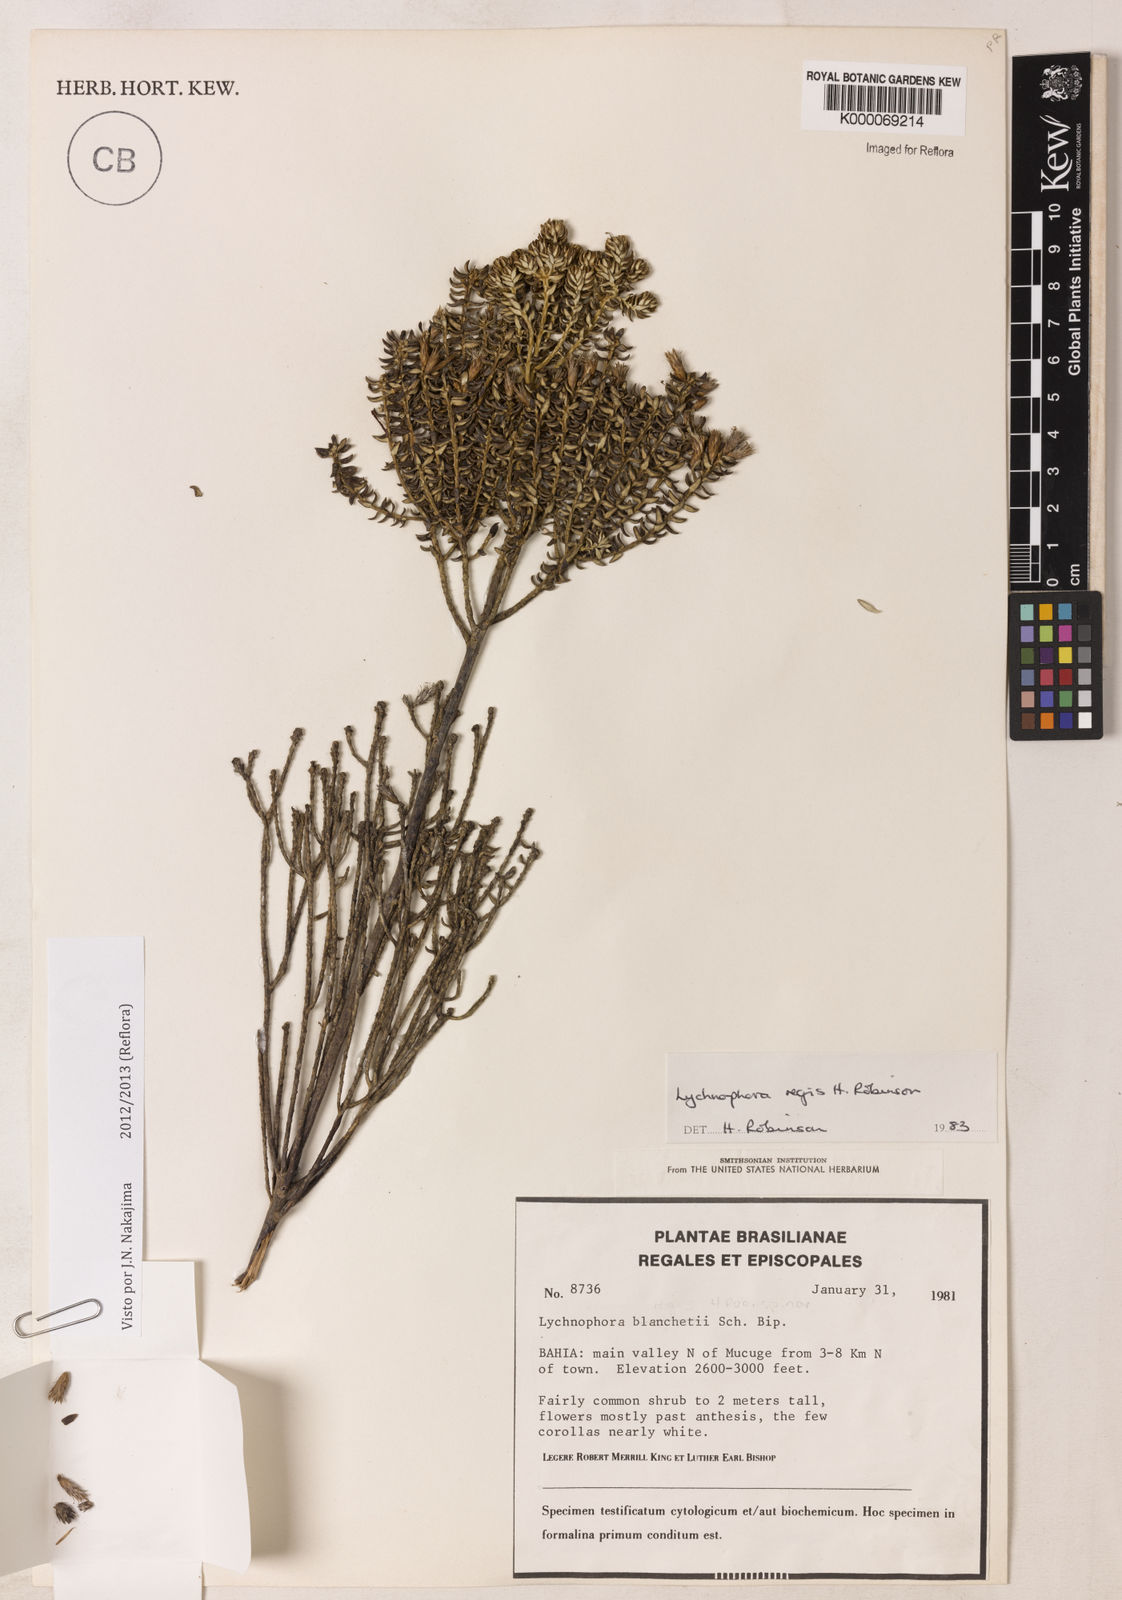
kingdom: Plantae
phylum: Tracheophyta
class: Magnoliopsida
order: Asterales
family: Asteraceae
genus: Lychnophorella
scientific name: Lychnophorella regis
